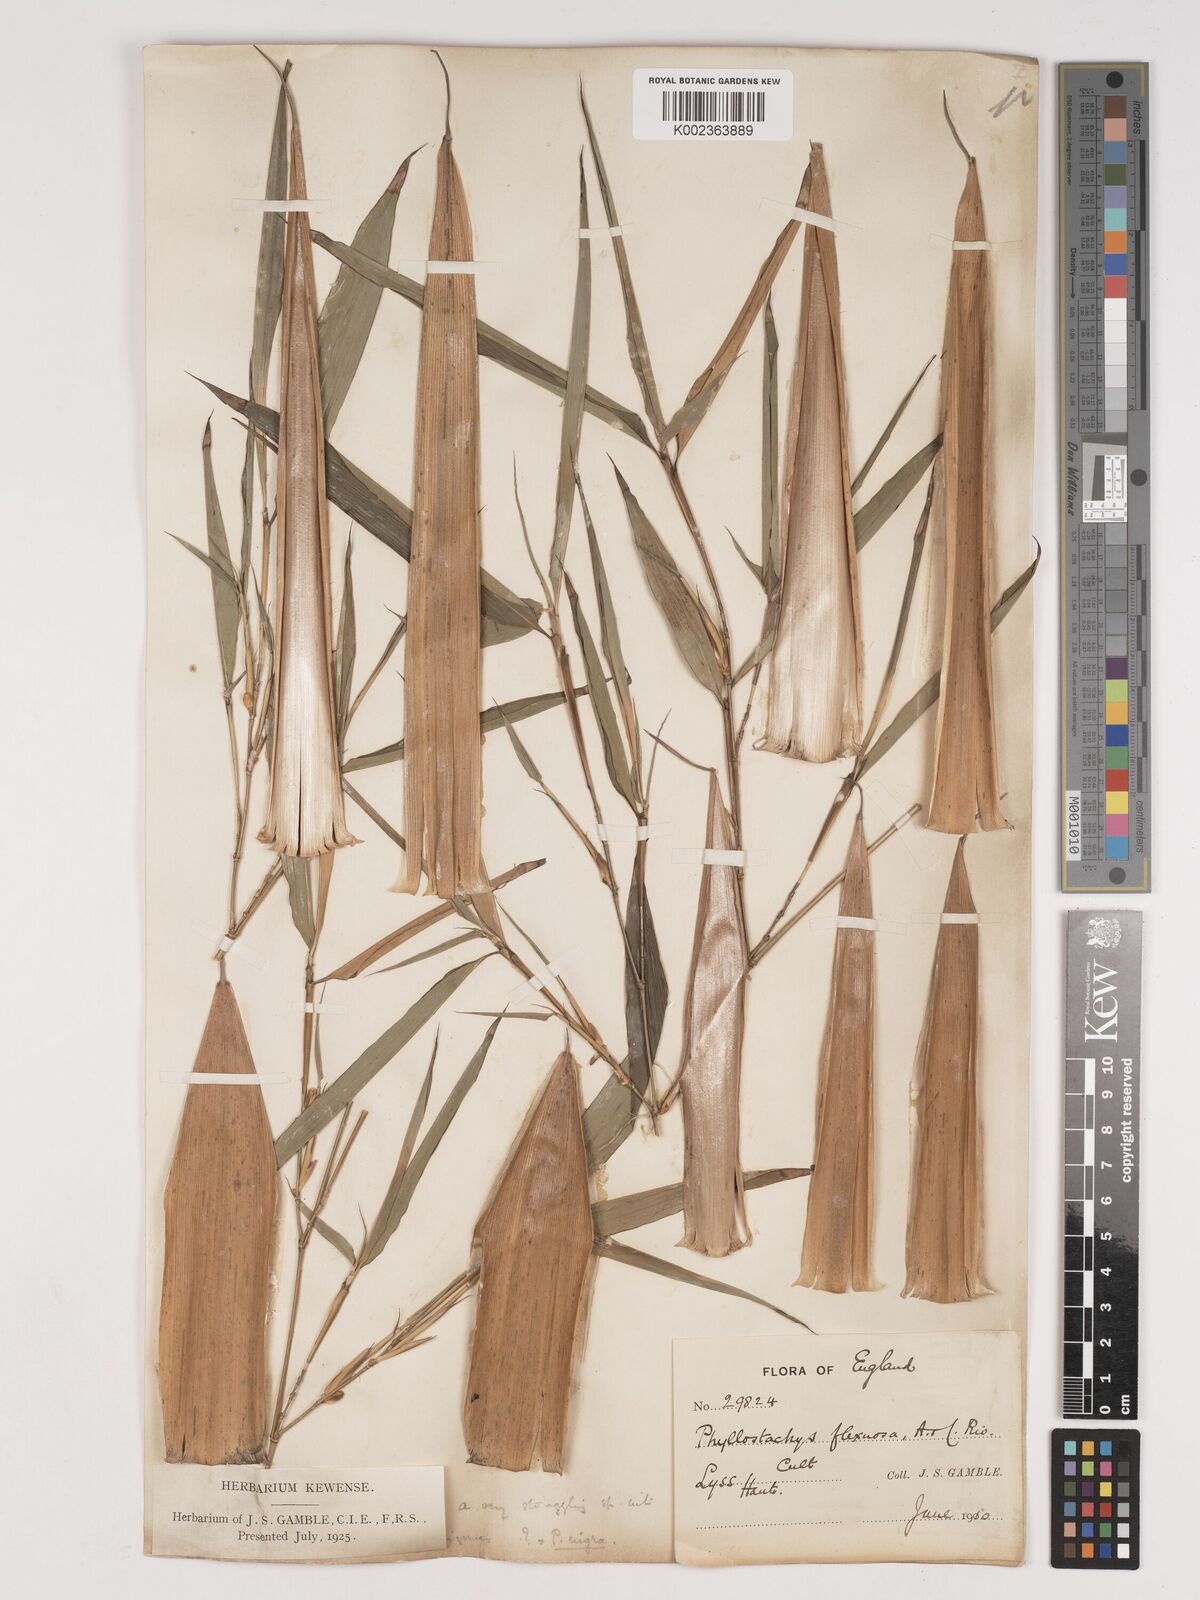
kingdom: Plantae
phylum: Tracheophyta
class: Liliopsida
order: Poales
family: Poaceae
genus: Phyllostachys
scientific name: Phyllostachys flexuosa
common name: Drooping timber bamboo
